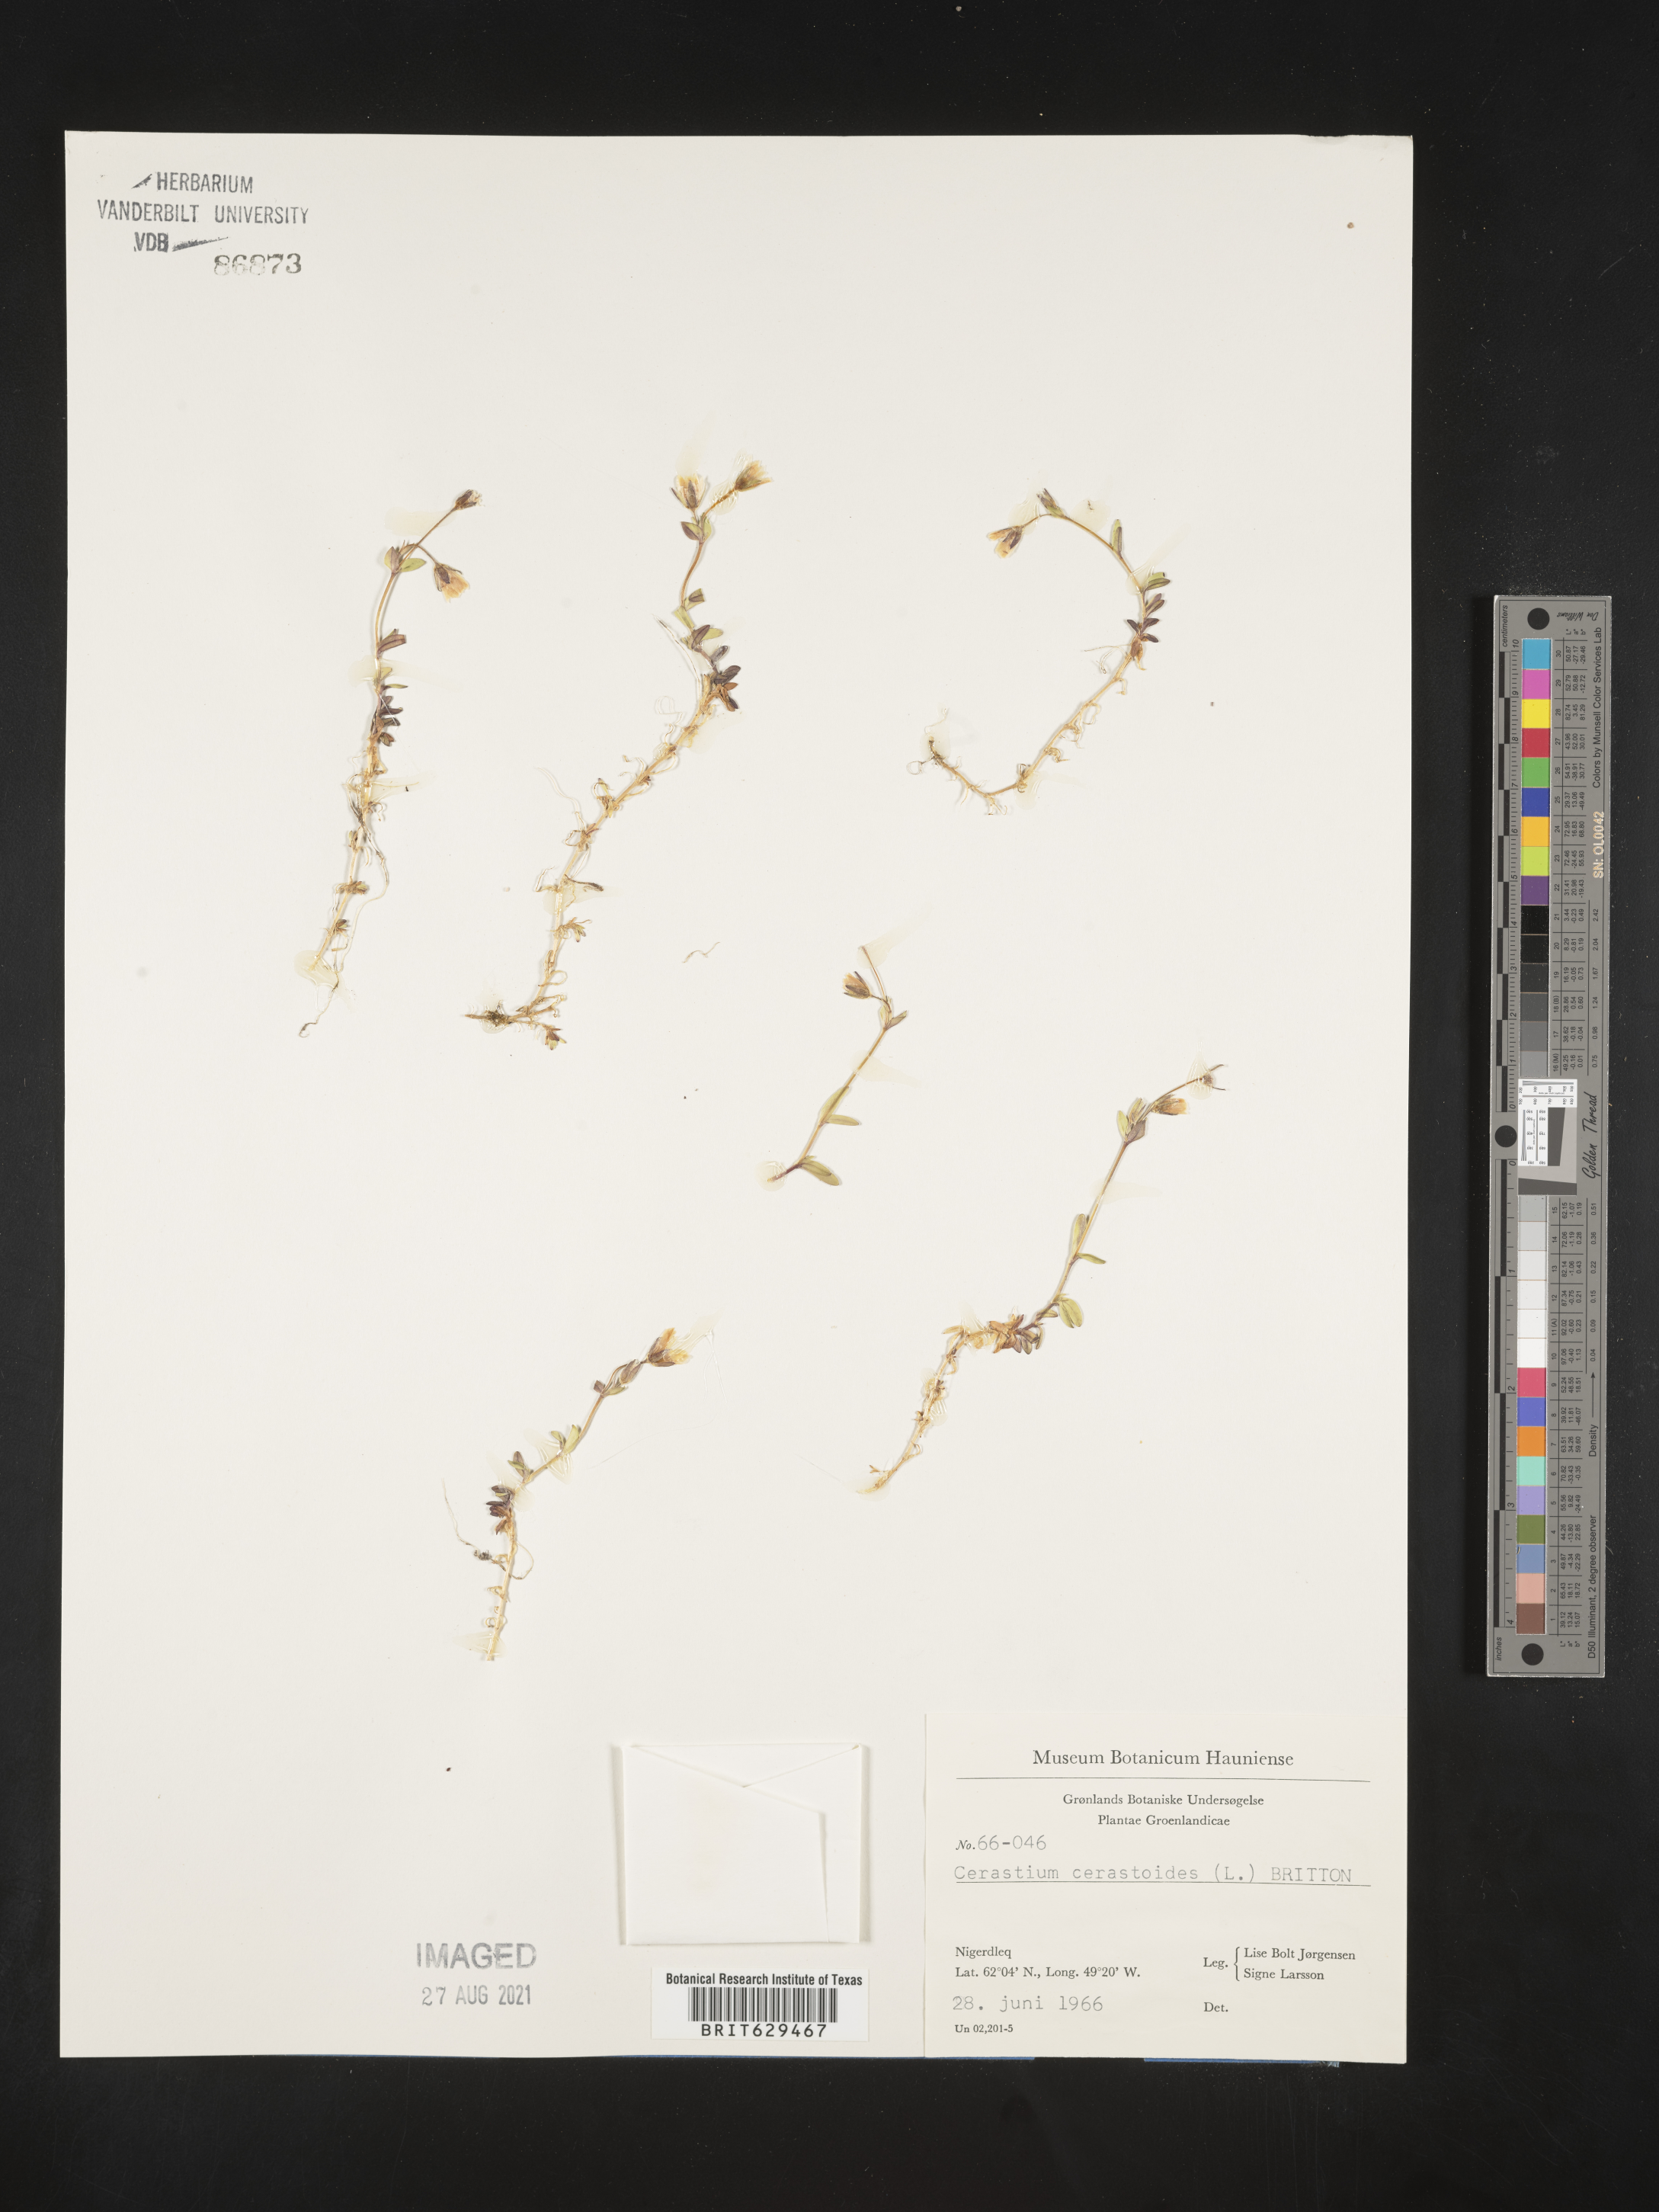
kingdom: Plantae
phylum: Tracheophyta
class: Magnoliopsida
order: Caryophyllales
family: Caryophyllaceae
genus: Dichodon
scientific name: Dichodon cerastoides
